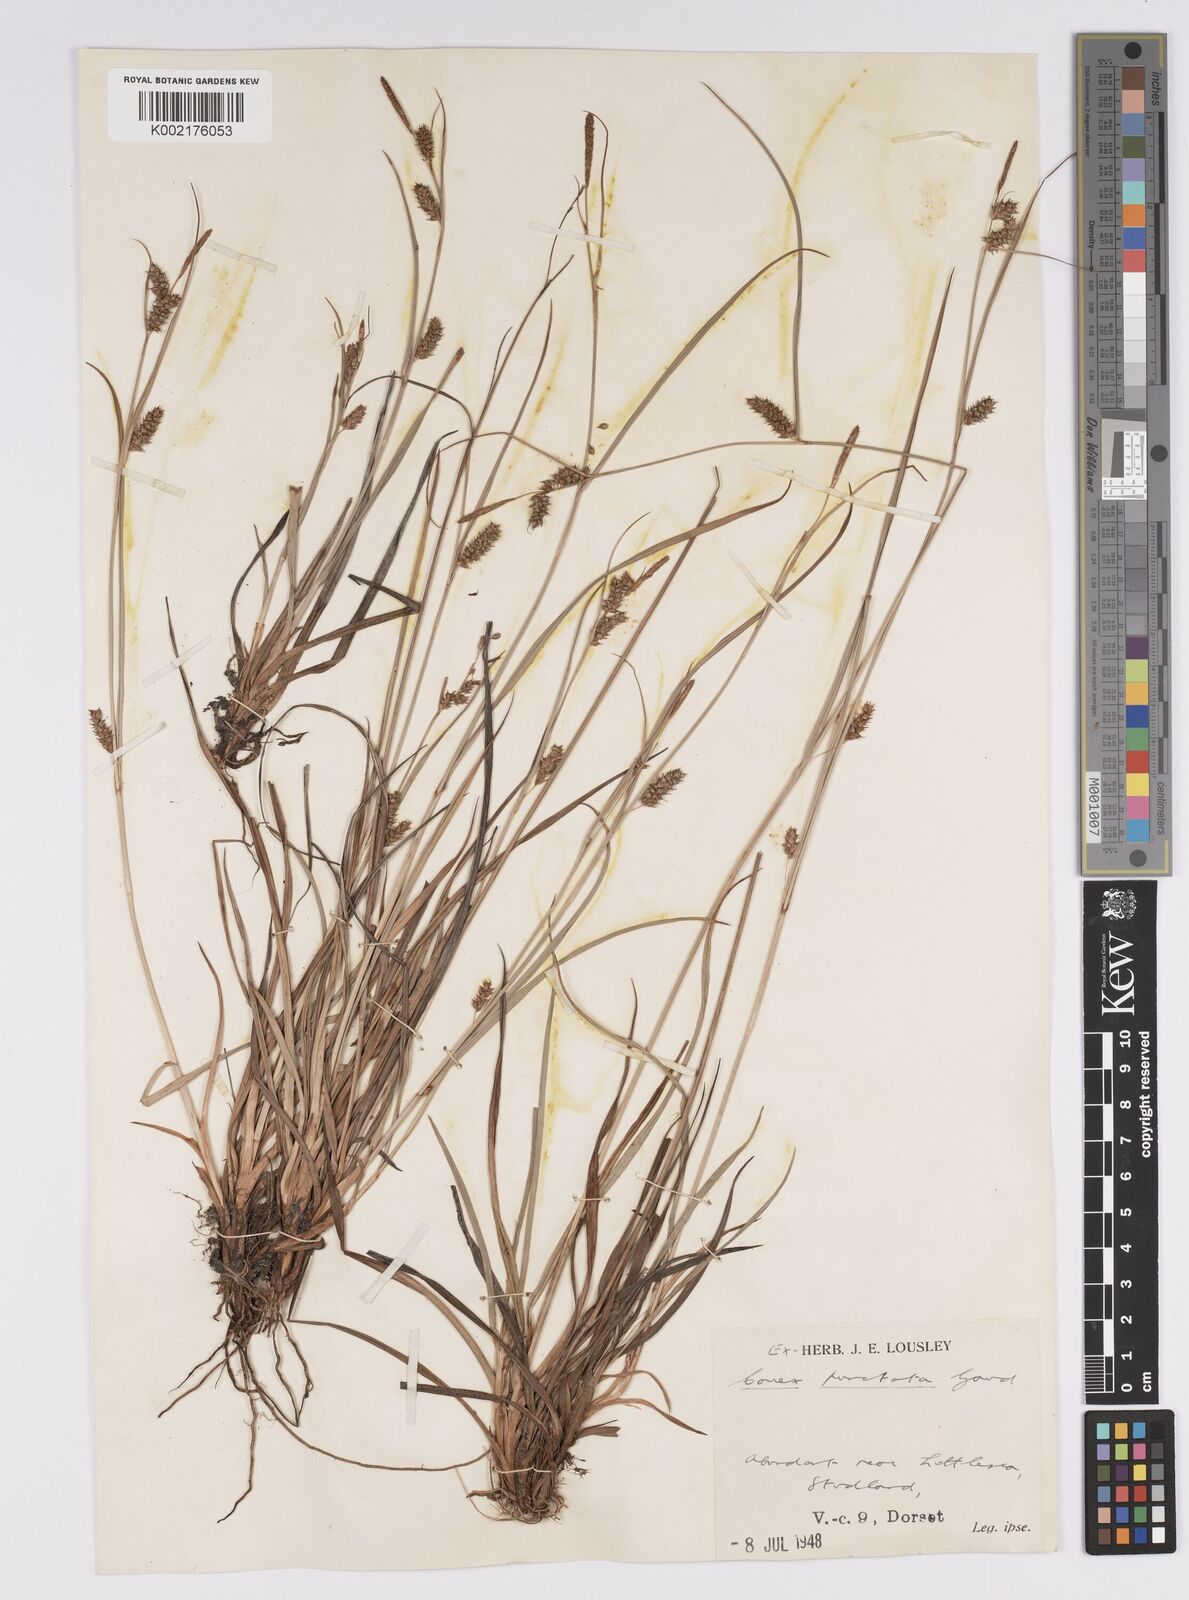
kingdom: Plantae
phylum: Tracheophyta
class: Liliopsida
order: Poales
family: Cyperaceae
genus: Carex
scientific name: Carex punctata
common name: Dotted sedge
